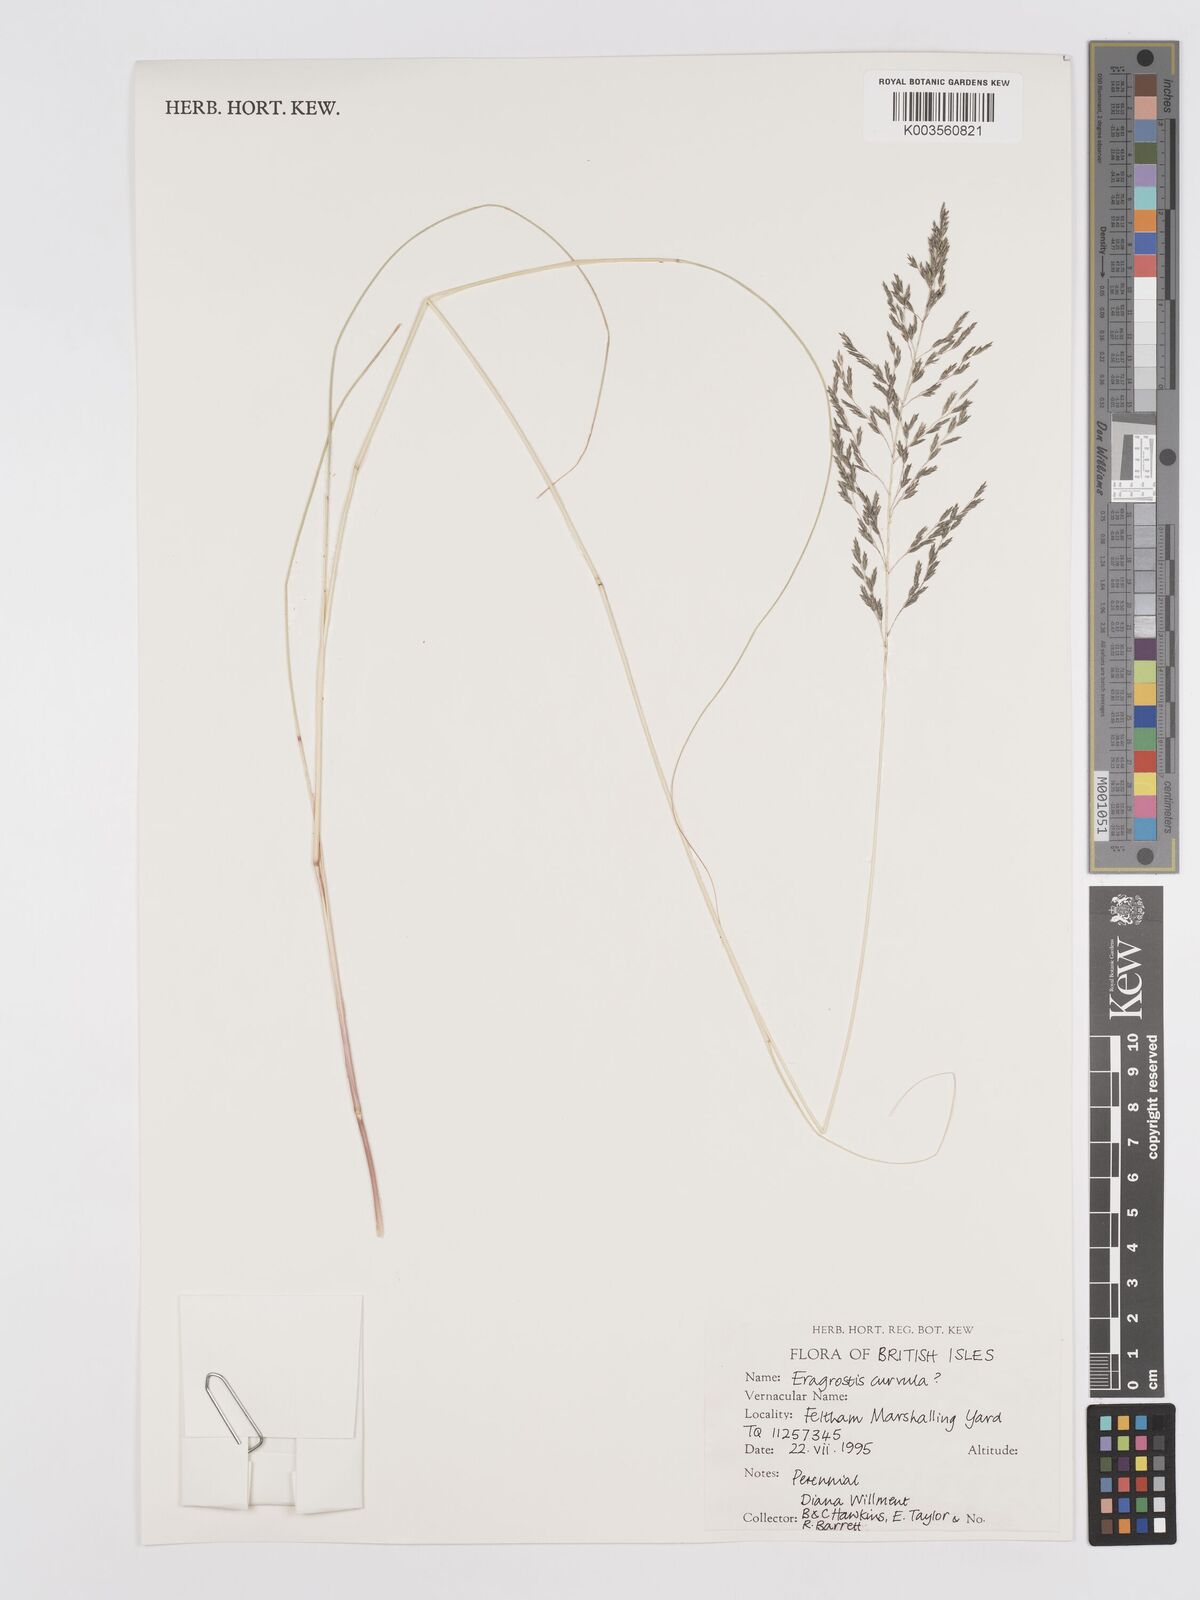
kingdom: Plantae
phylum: Tracheophyta
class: Liliopsida
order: Poales
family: Poaceae
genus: Eragrostis
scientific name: Eragrostis curvula
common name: African love-grass
